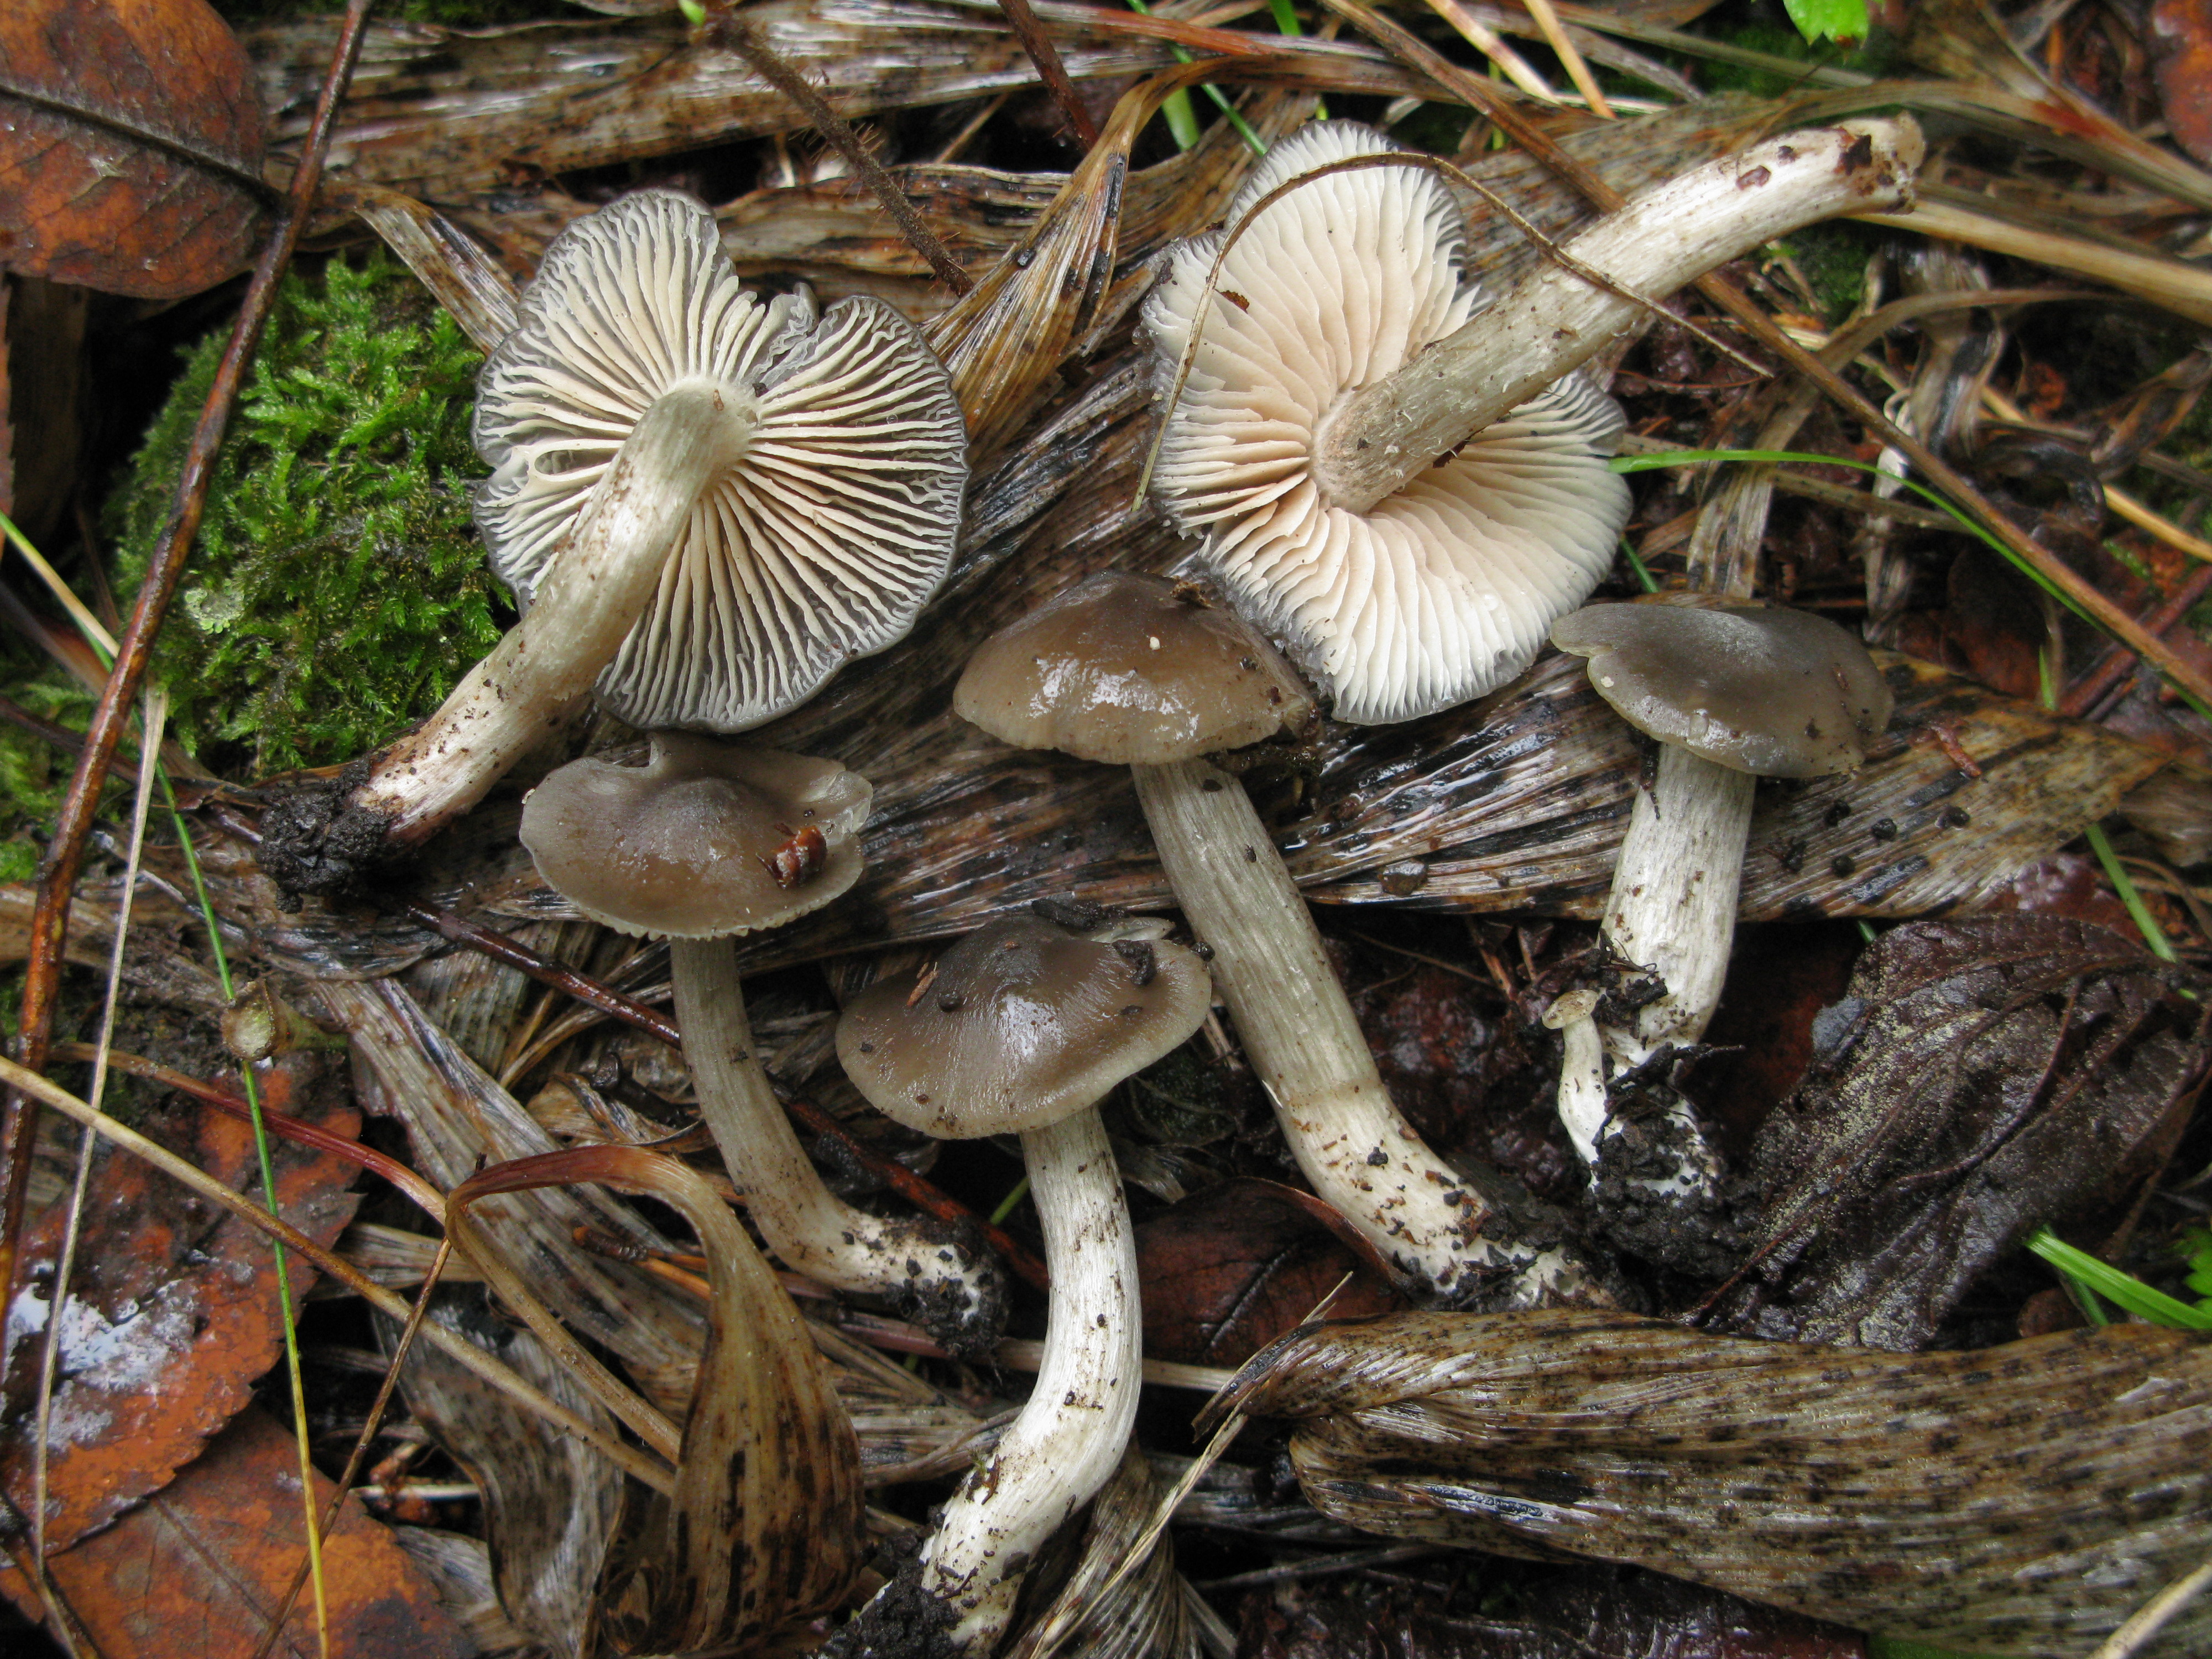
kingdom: Fungi
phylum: Basidiomycota
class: Agaricomycetes
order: Agaricales
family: Entolomataceae
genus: Entoloma
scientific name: Entoloma tiliae
